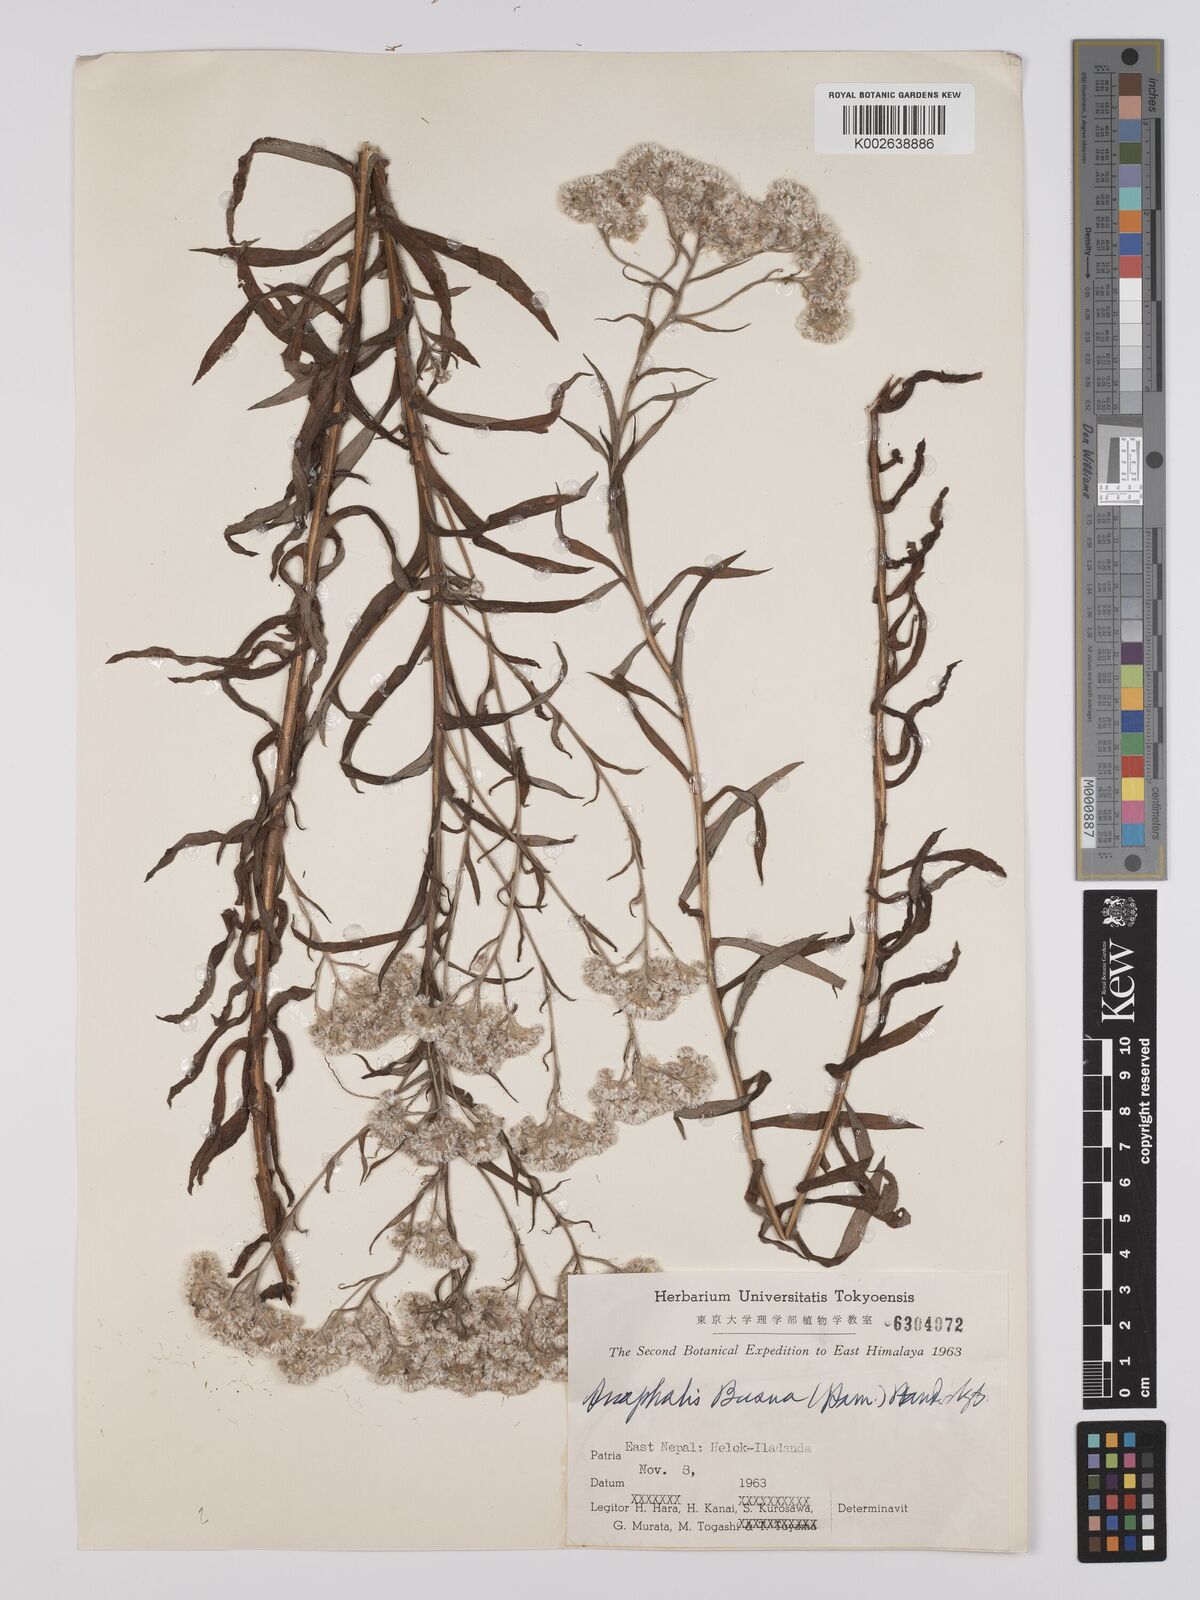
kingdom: Plantae
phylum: Tracheophyta
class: Magnoliopsida
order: Asterales
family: Asteraceae
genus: Anaphalis
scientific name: Anaphalis busua
